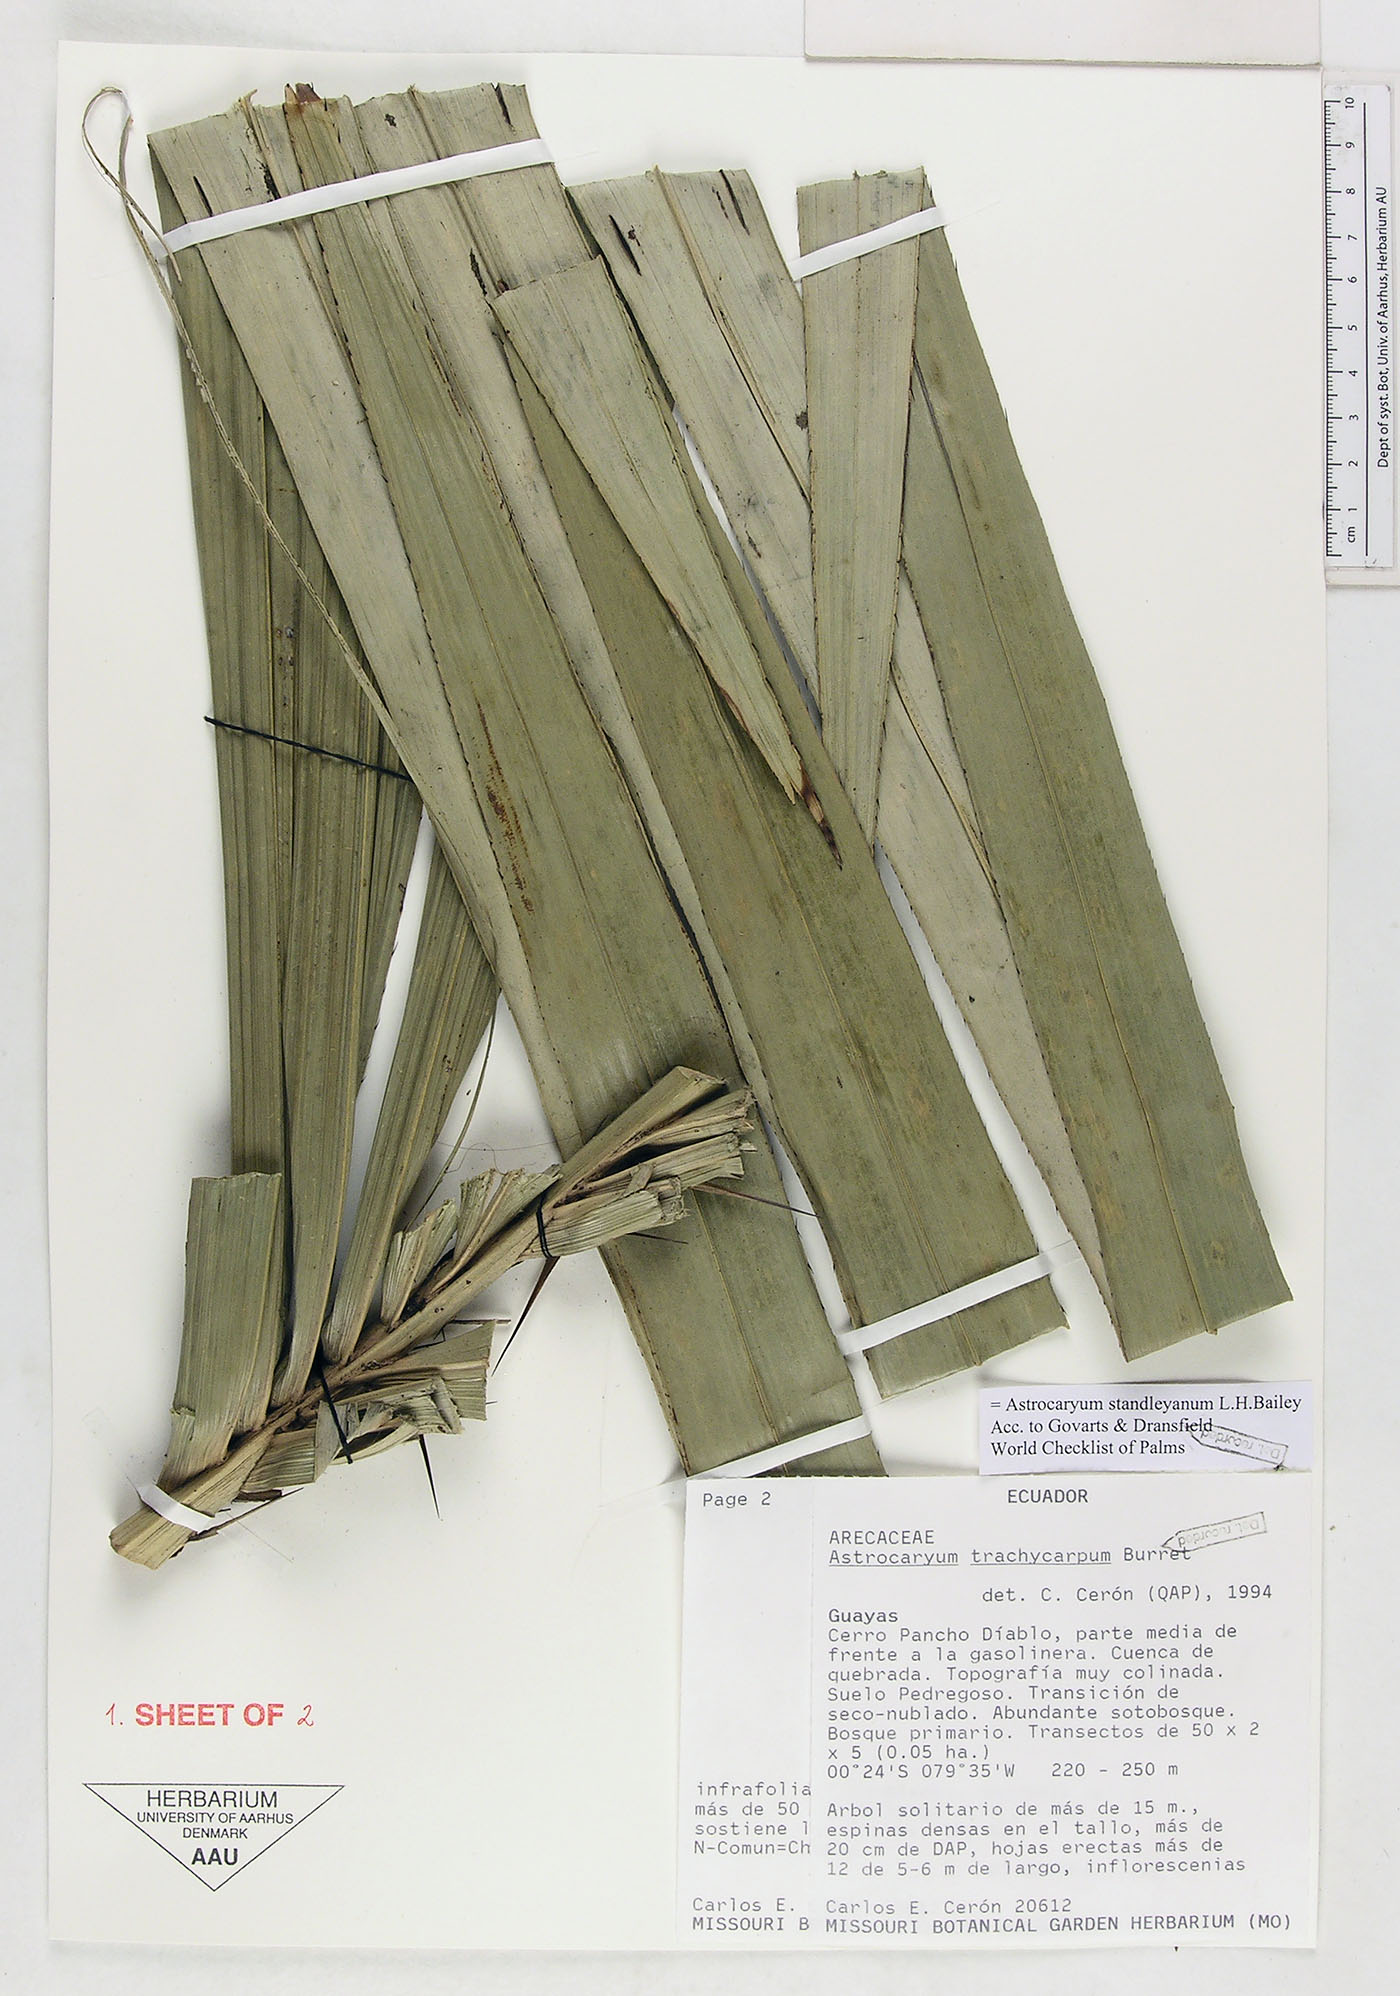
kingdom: Plantae
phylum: Tracheophyta
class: Liliopsida
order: Arecales
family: Arecaceae
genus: Astrocaryum
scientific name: Astrocaryum standleyanum
